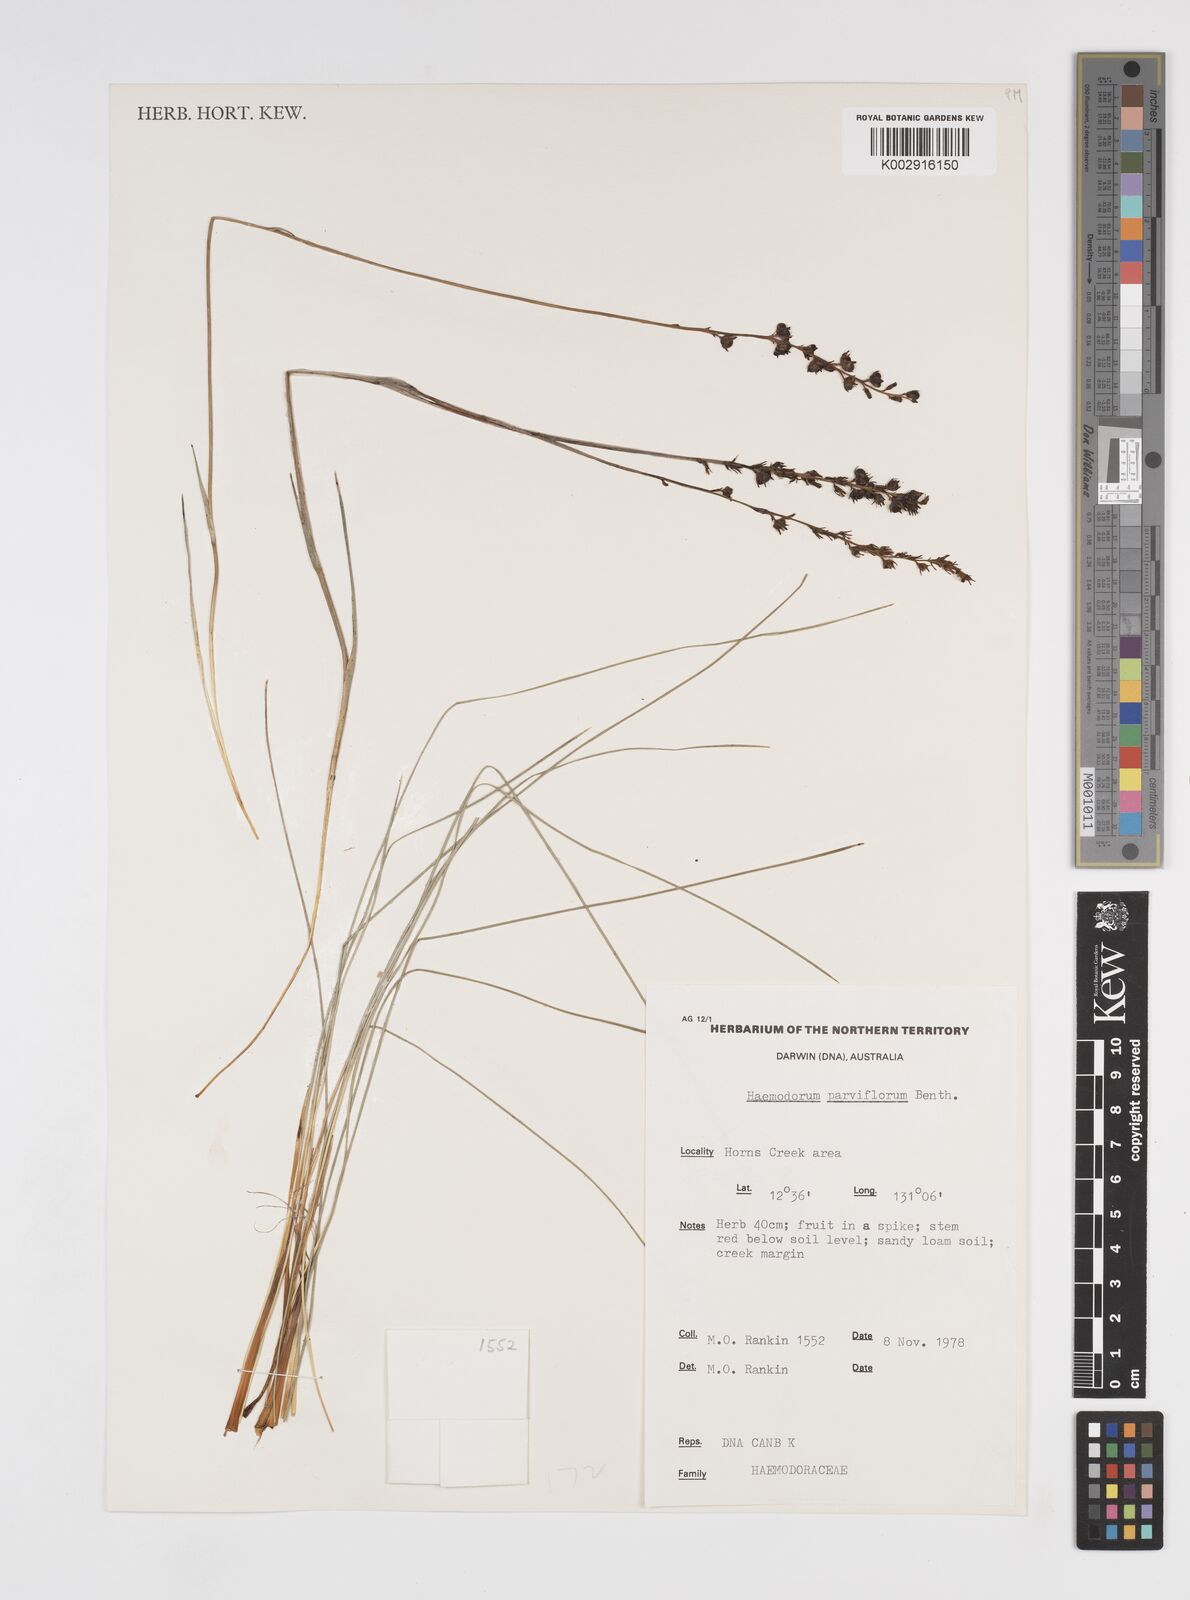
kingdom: Plantae
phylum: Tracheophyta
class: Liliopsida
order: Commelinales
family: Haemodoraceae
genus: Haemodorum
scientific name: Haemodorum parviflorum
